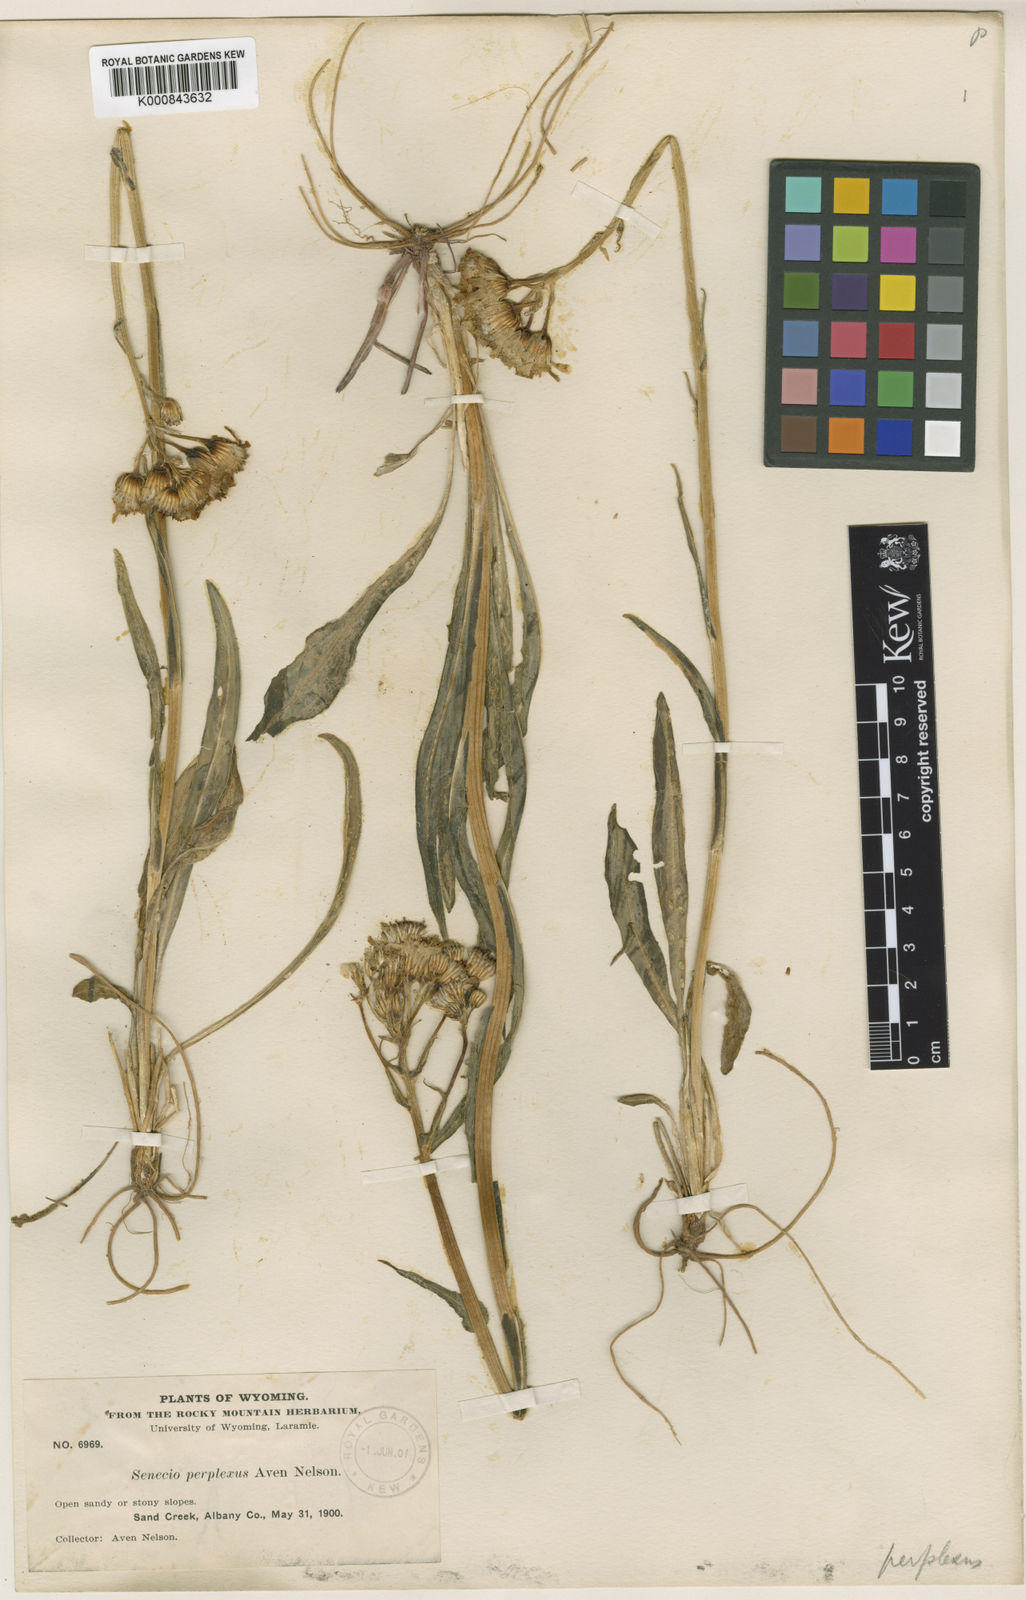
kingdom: Plantae
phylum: Tracheophyta
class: Magnoliopsida
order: Asterales
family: Asteraceae
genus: Senecio
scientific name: Senecio integerrimus
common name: Gaugeplant
